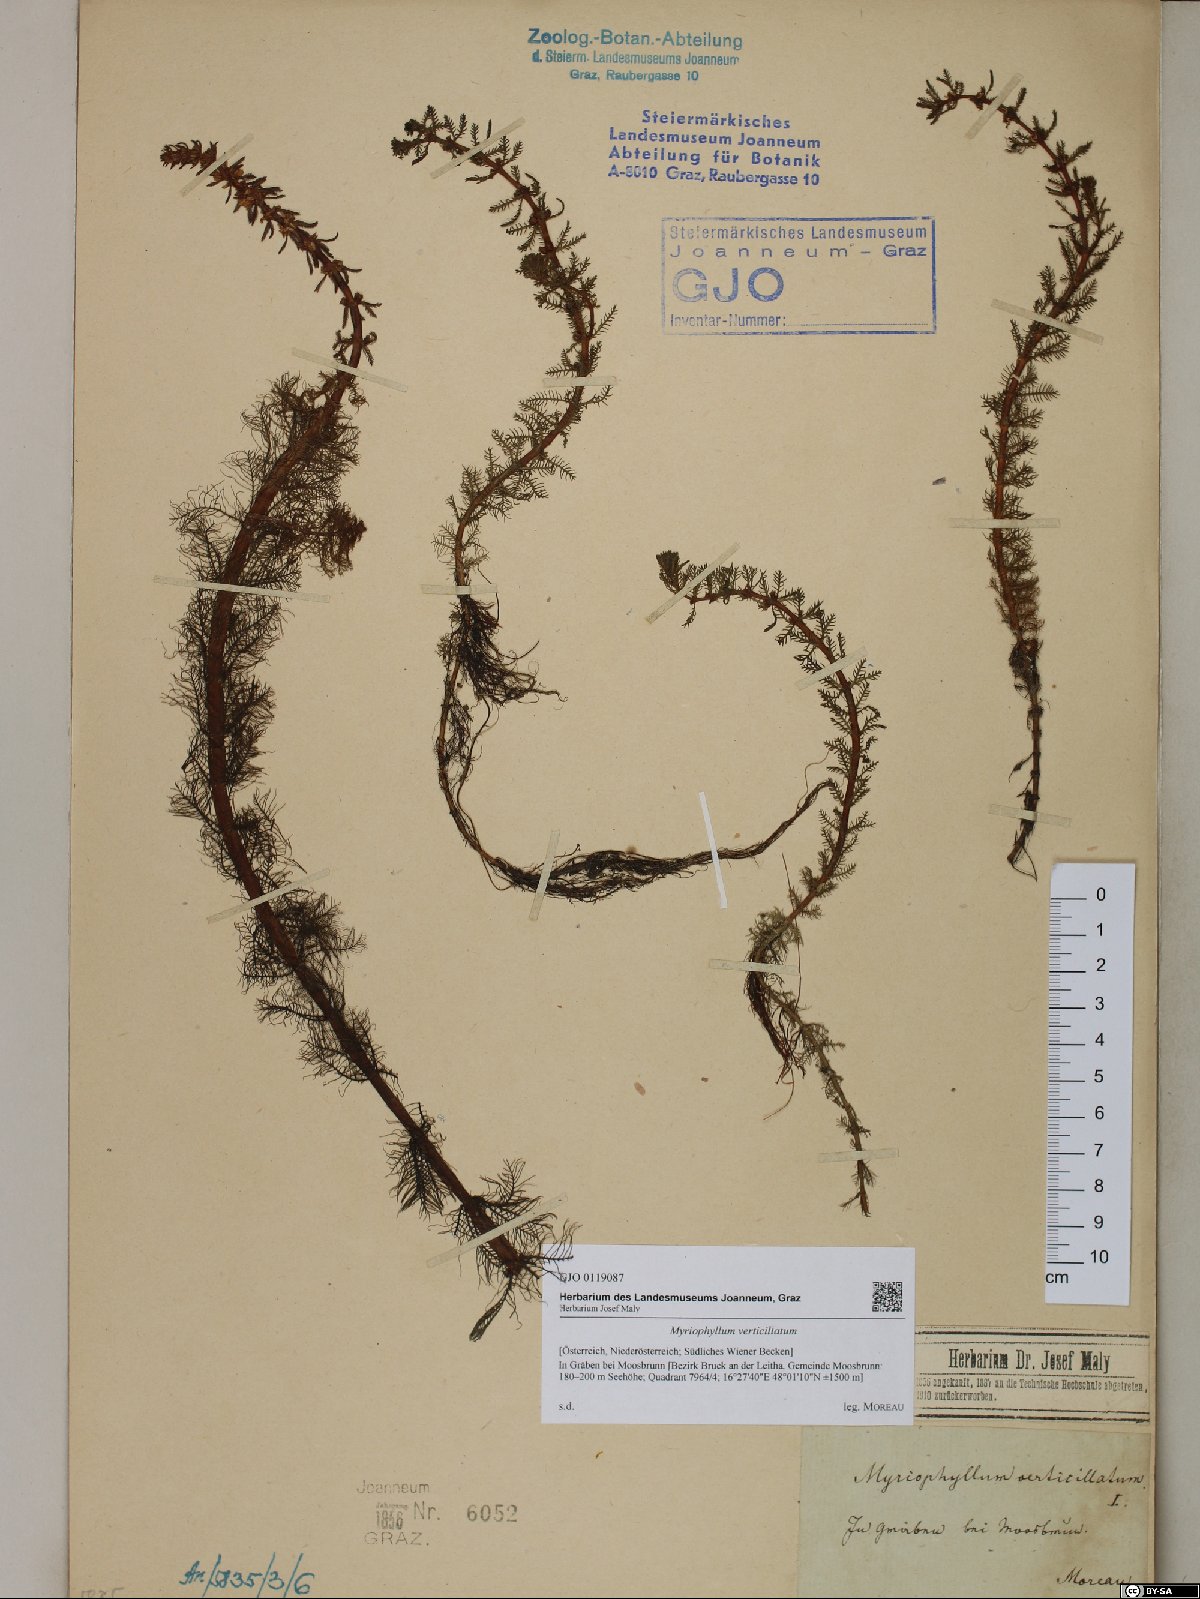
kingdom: Plantae
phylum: Tracheophyta
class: Magnoliopsida
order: Saxifragales
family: Haloragaceae
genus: Myriophyllum
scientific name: Myriophyllum verticillatum
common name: Whorled water-milfoil
